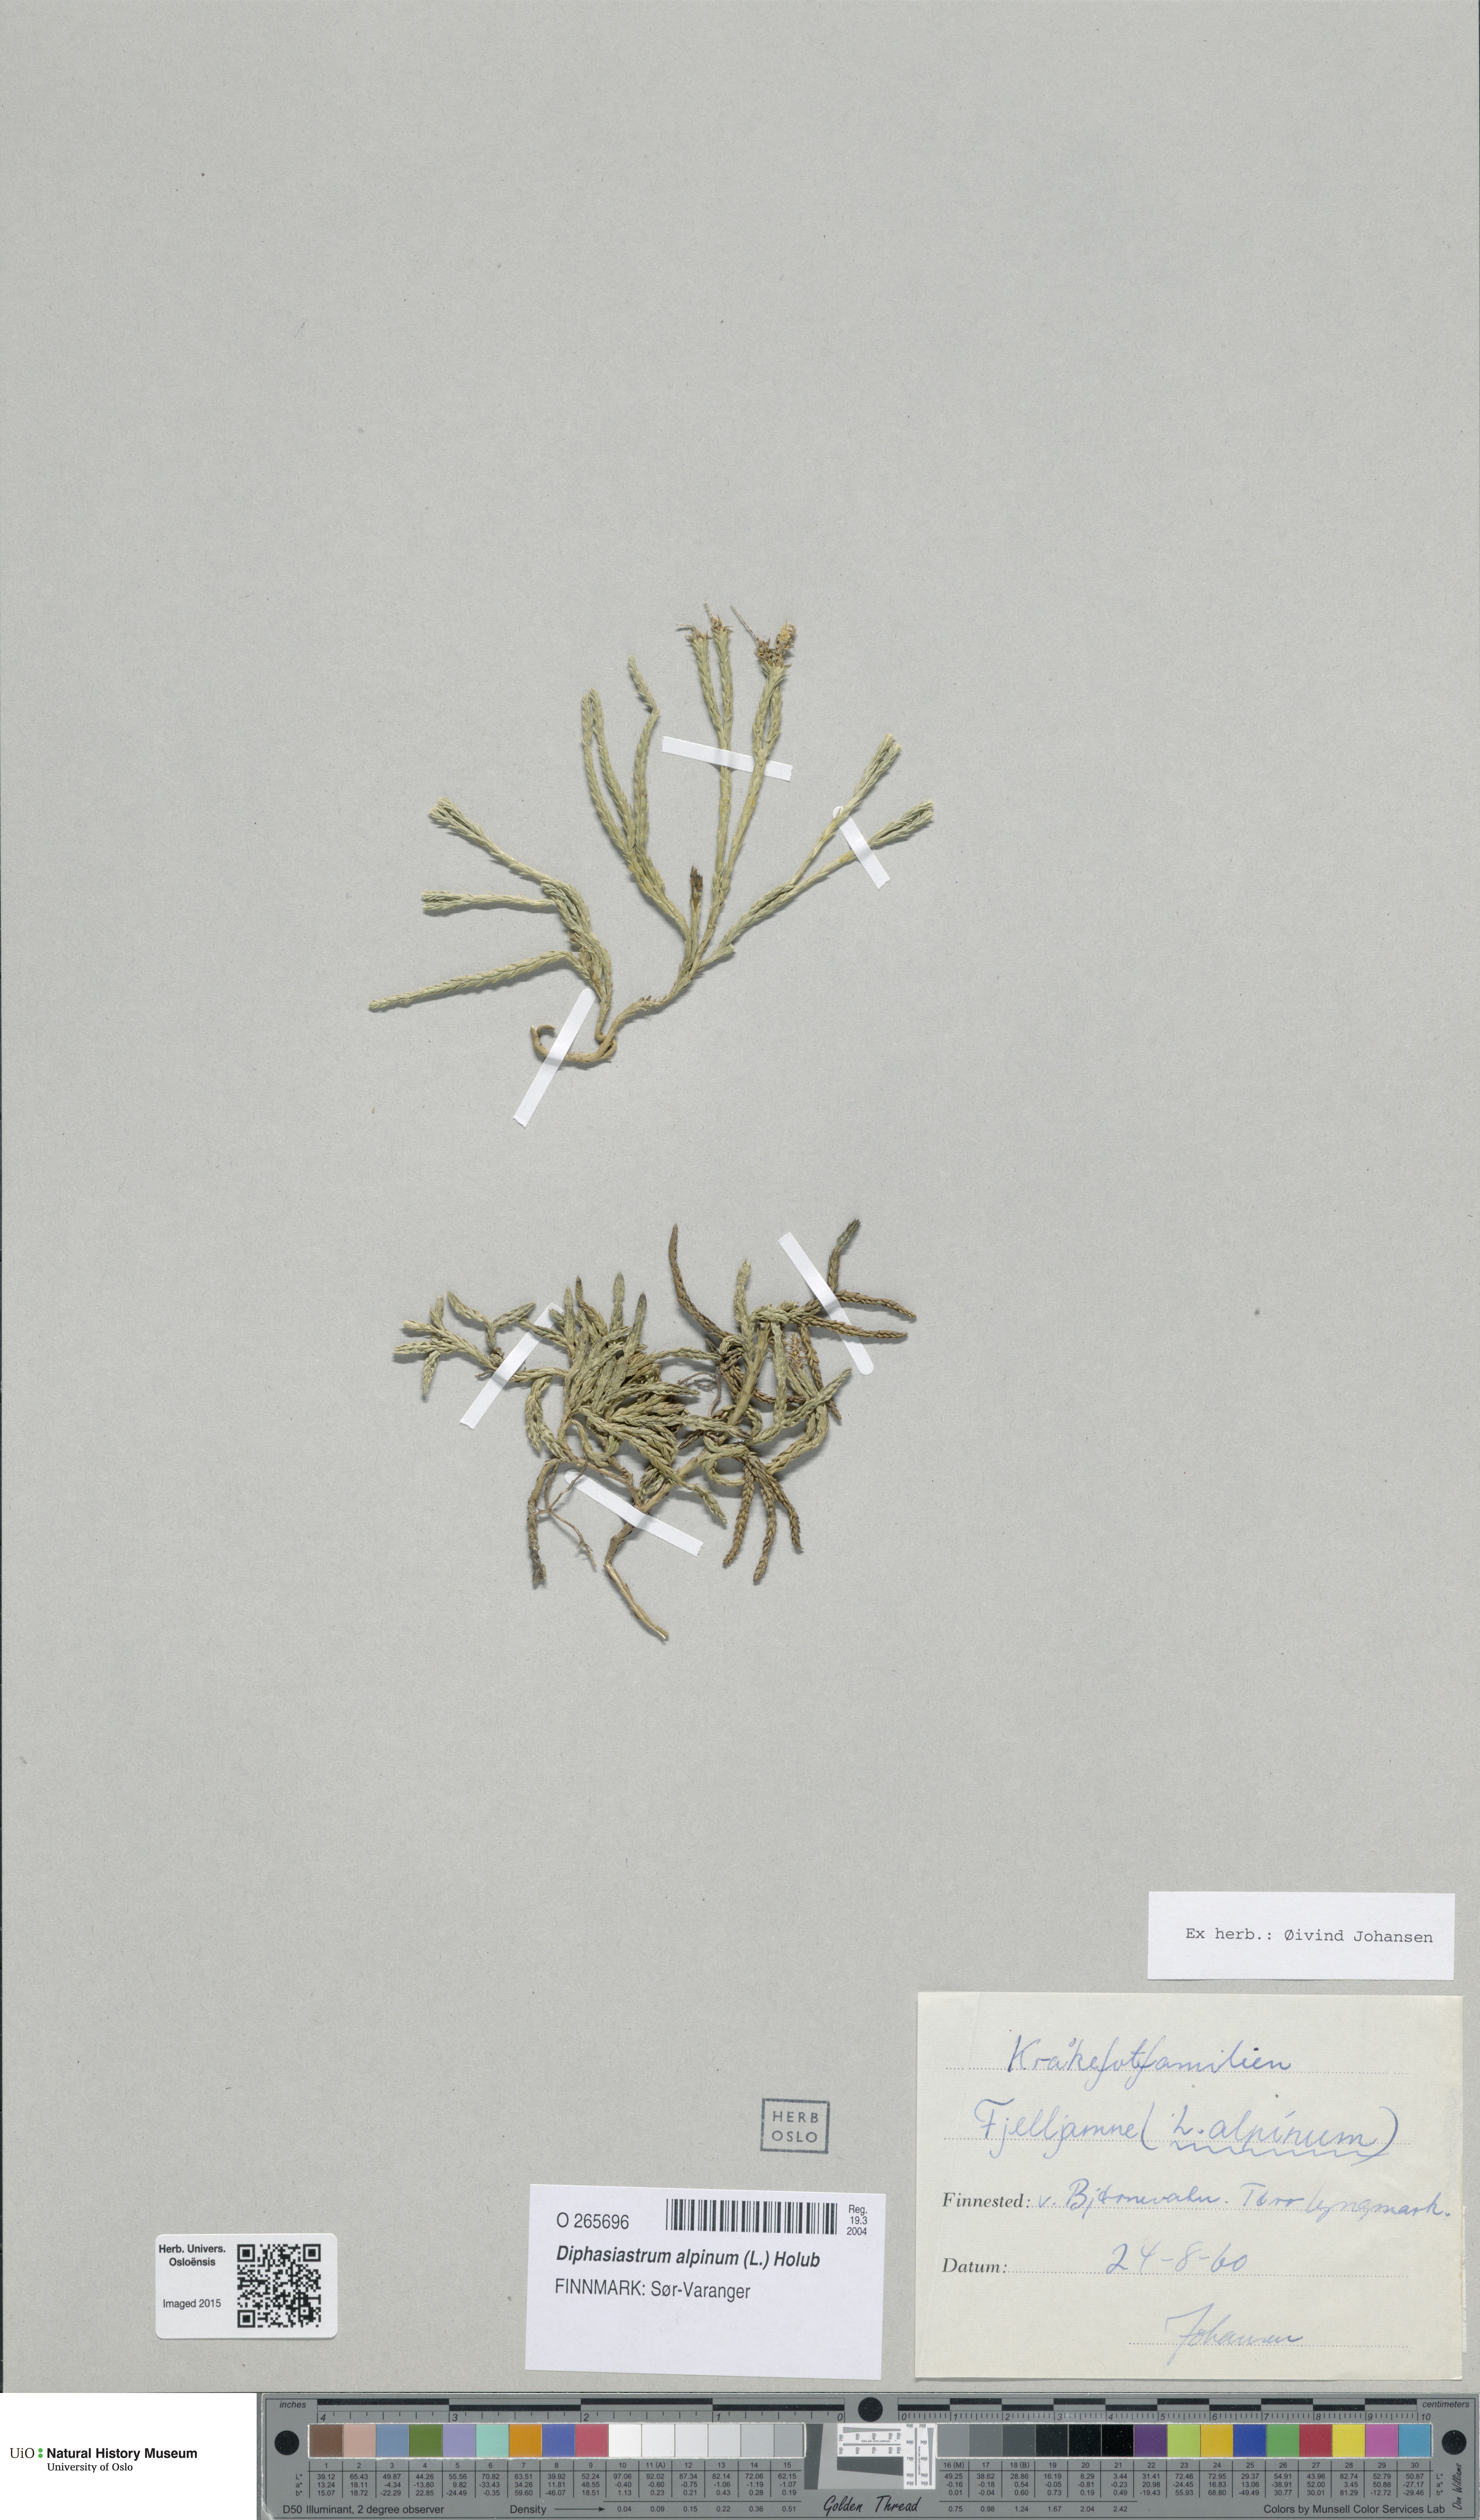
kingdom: Plantae
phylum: Tracheophyta
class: Lycopodiopsida
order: Lycopodiales
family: Lycopodiaceae
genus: Diphasiastrum
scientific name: Diphasiastrum alpinum
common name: Alpine clubmoss
